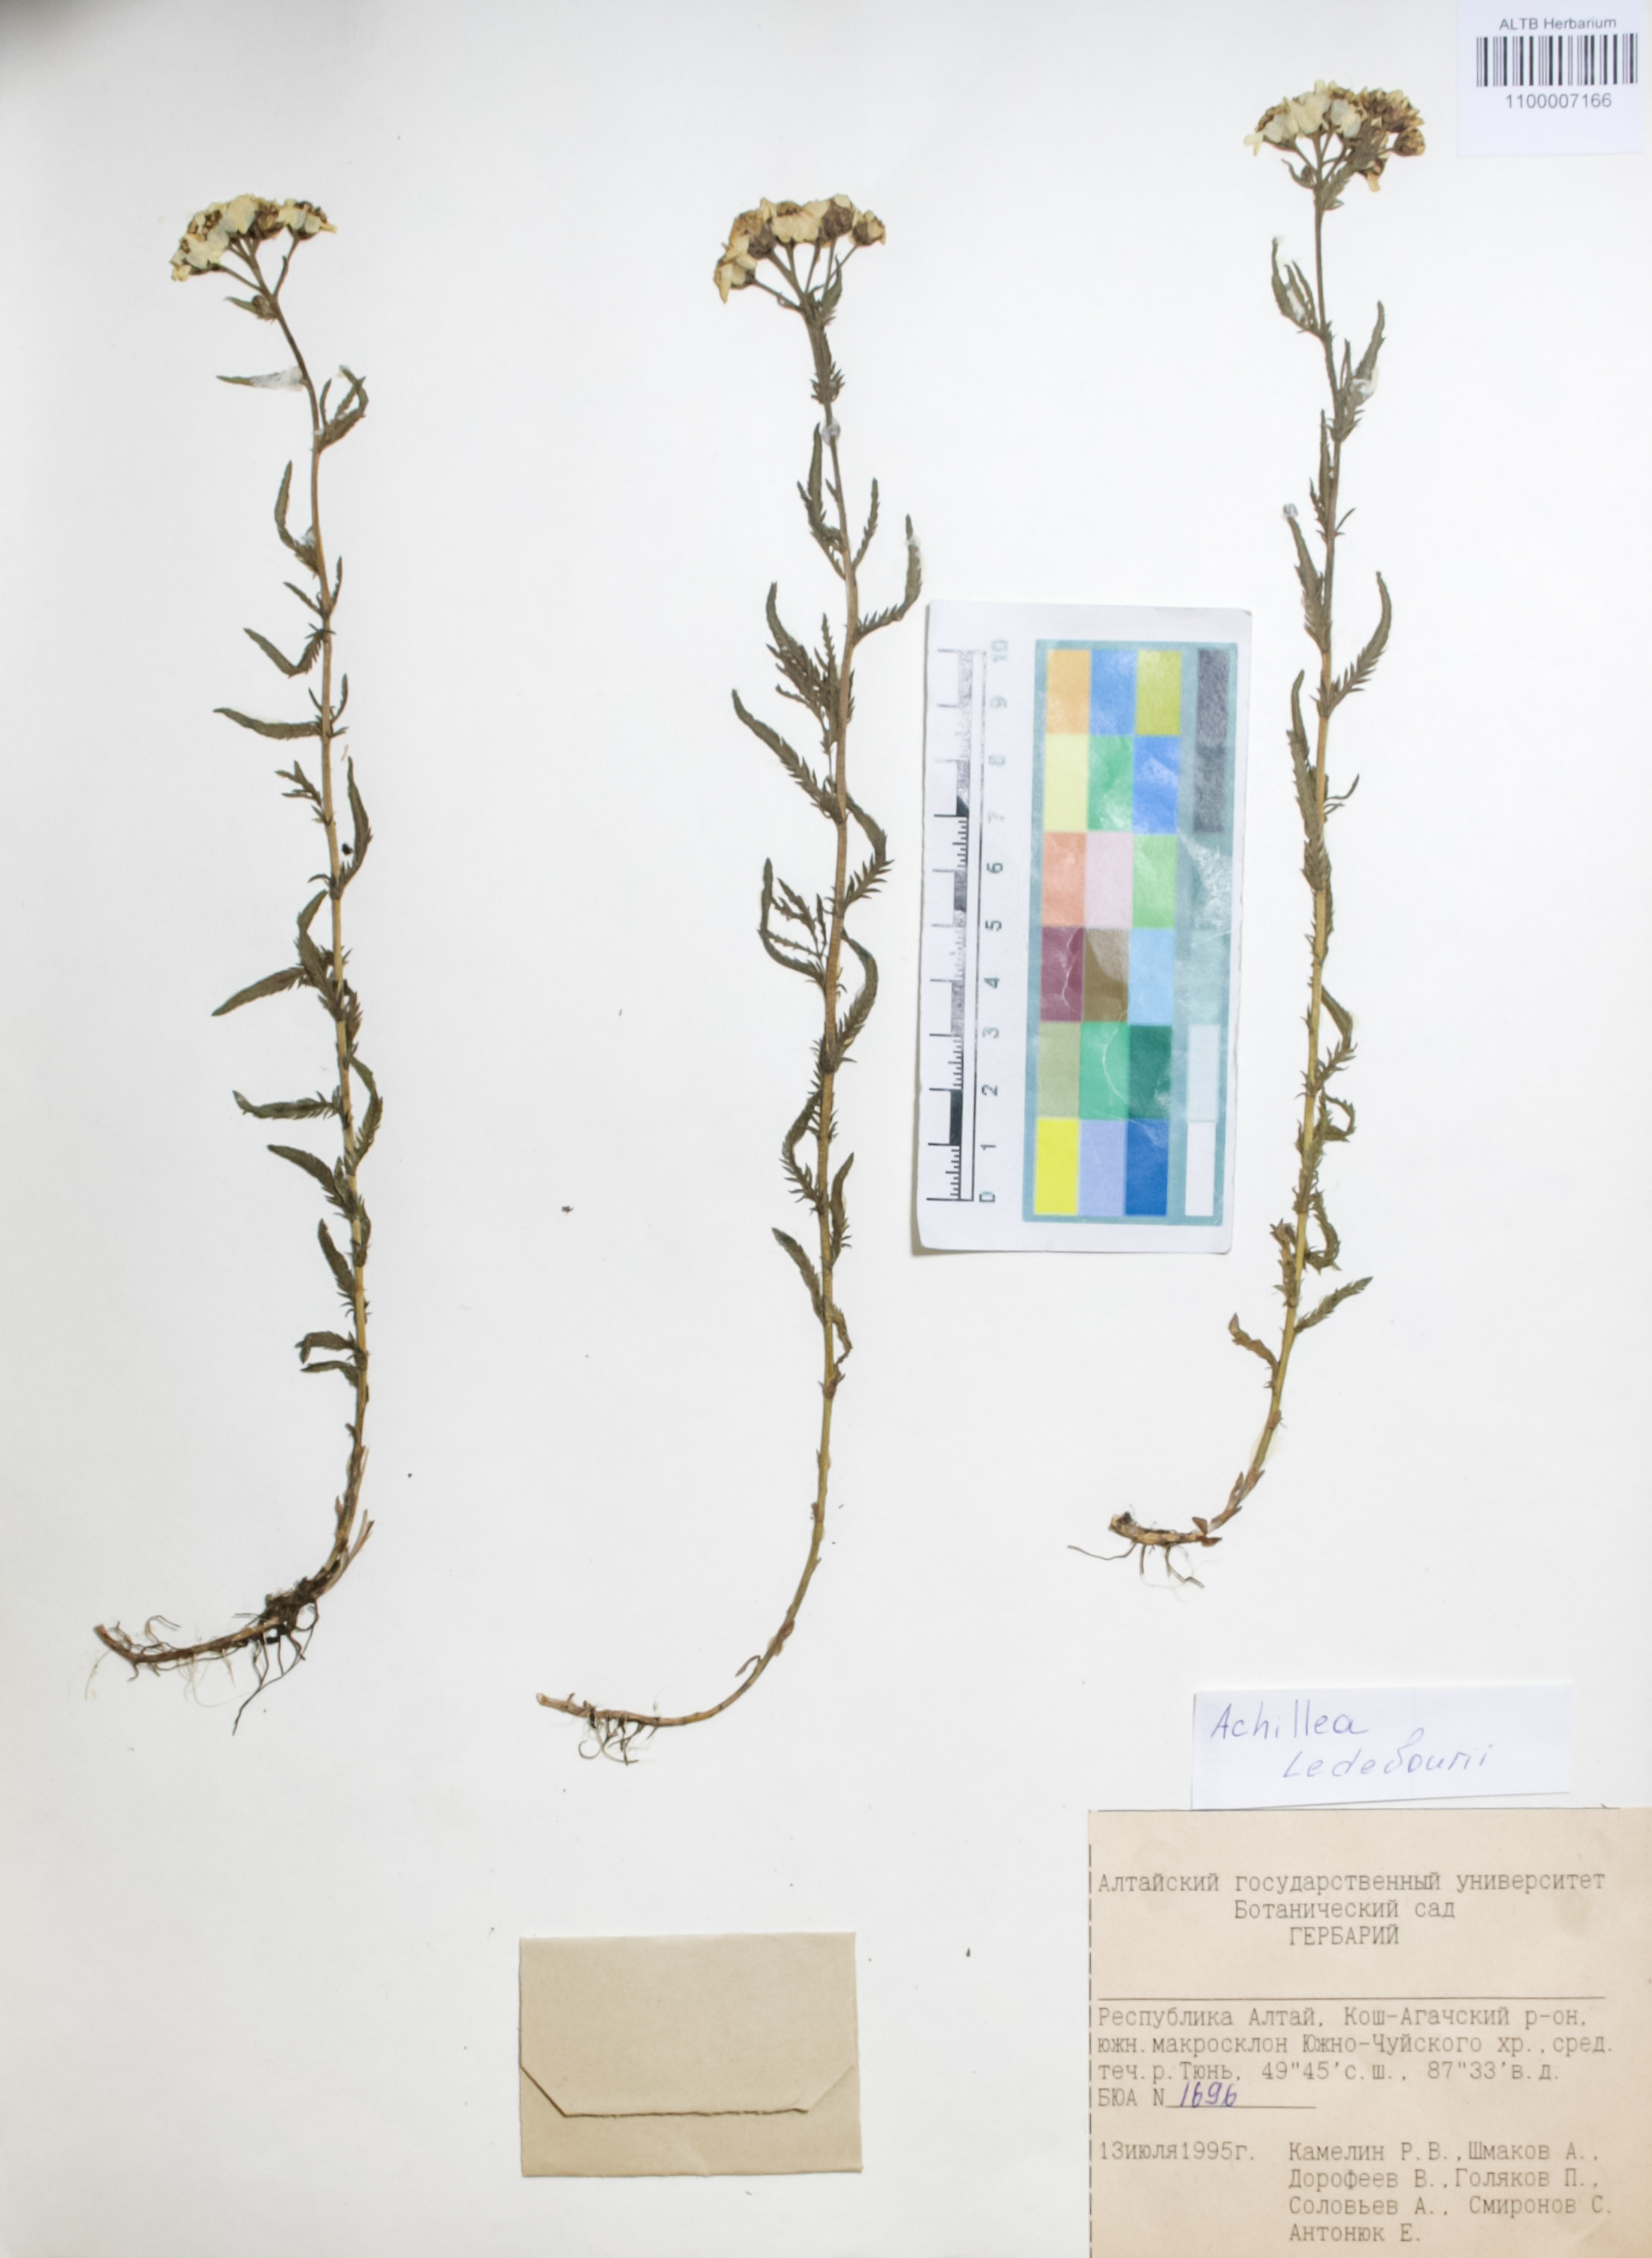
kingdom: Plantae
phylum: Tracheophyta
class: Magnoliopsida
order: Asterales
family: Asteraceae
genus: Achillea
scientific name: Achillea ledebourii
